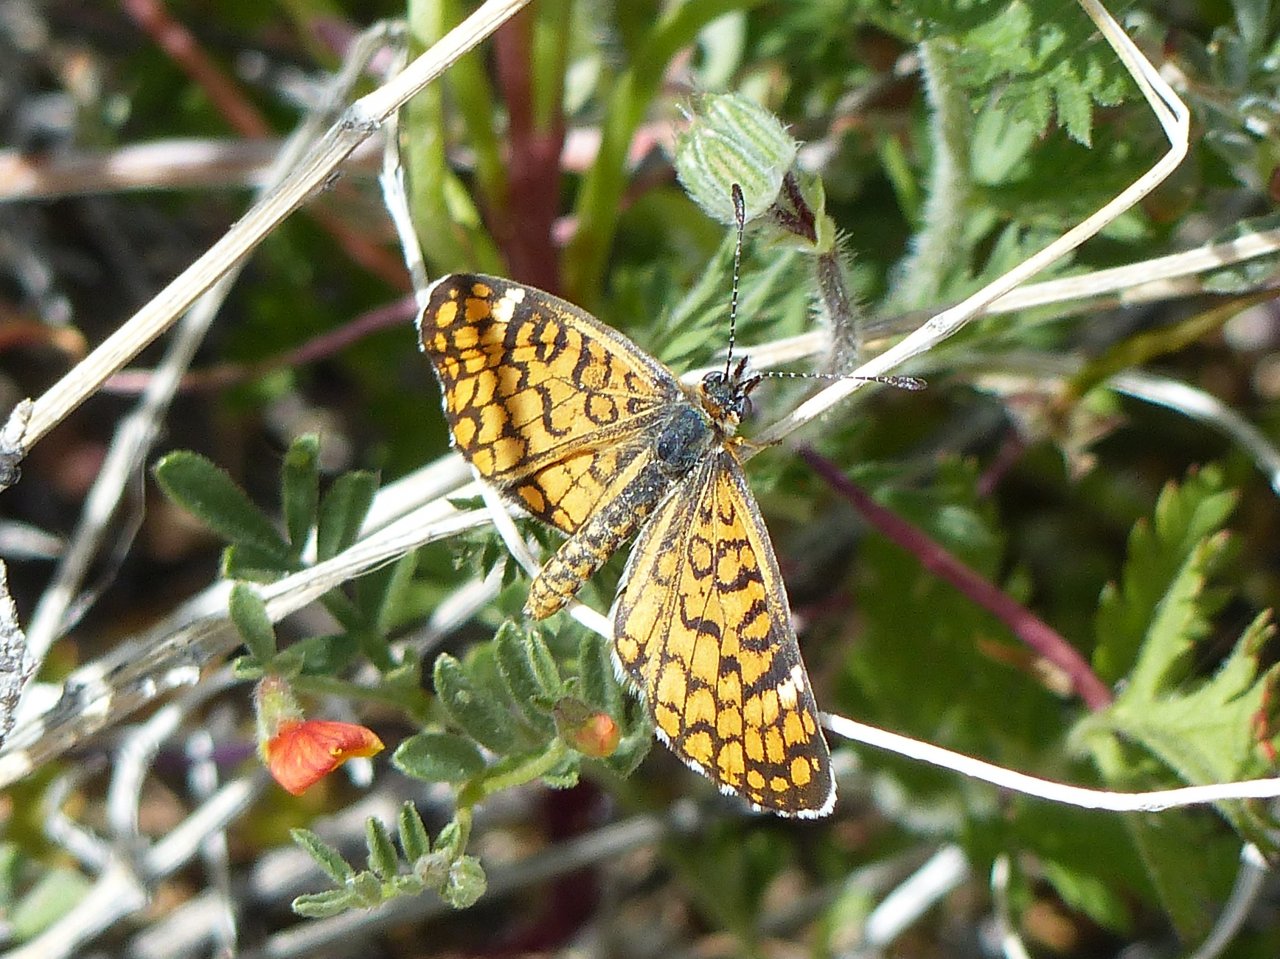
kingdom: Animalia
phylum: Arthropoda
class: Insecta
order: Lepidoptera
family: Nymphalidae
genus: Dymasia
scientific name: Dymasia dymas
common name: Tiny Checkerspot
